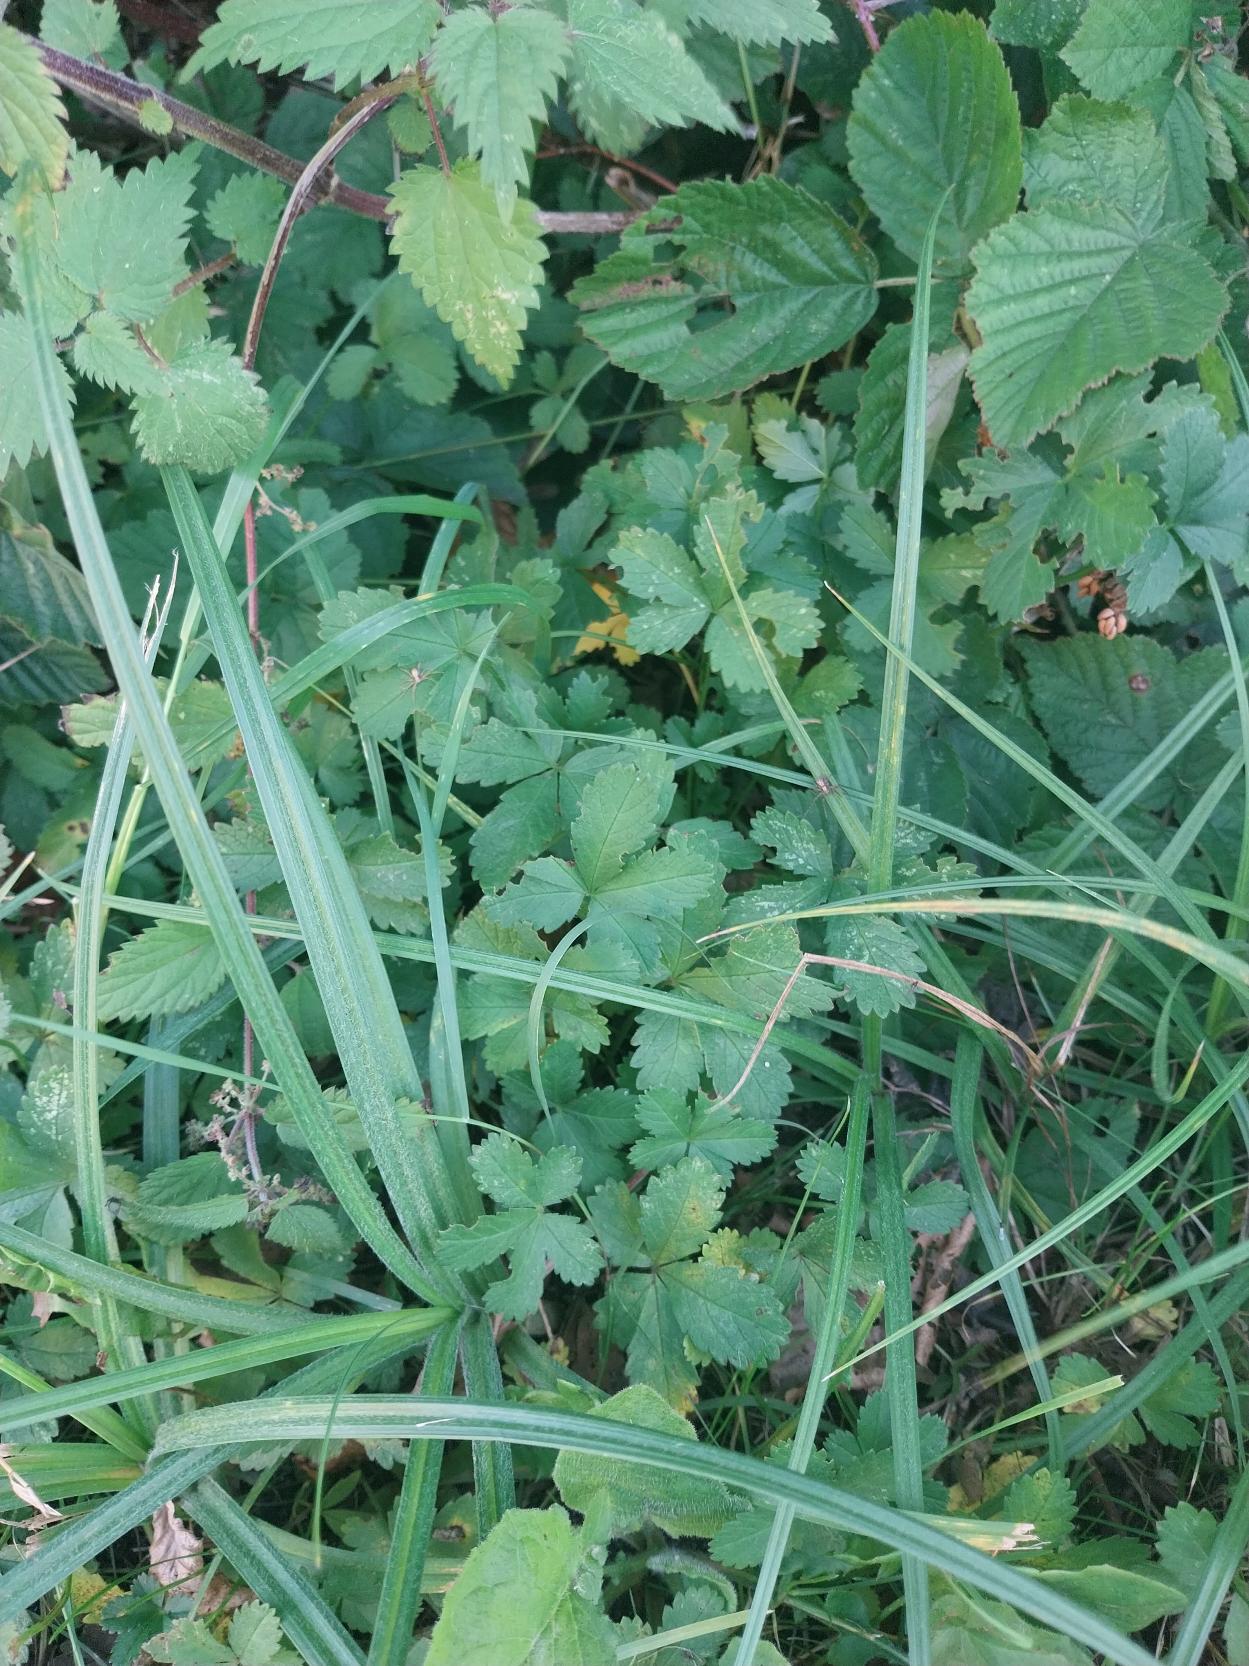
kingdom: Plantae
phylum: Tracheophyta
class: Magnoliopsida
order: Rosales
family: Rosaceae
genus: Potentilla
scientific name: Potentilla reptans
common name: Krybende potentil
